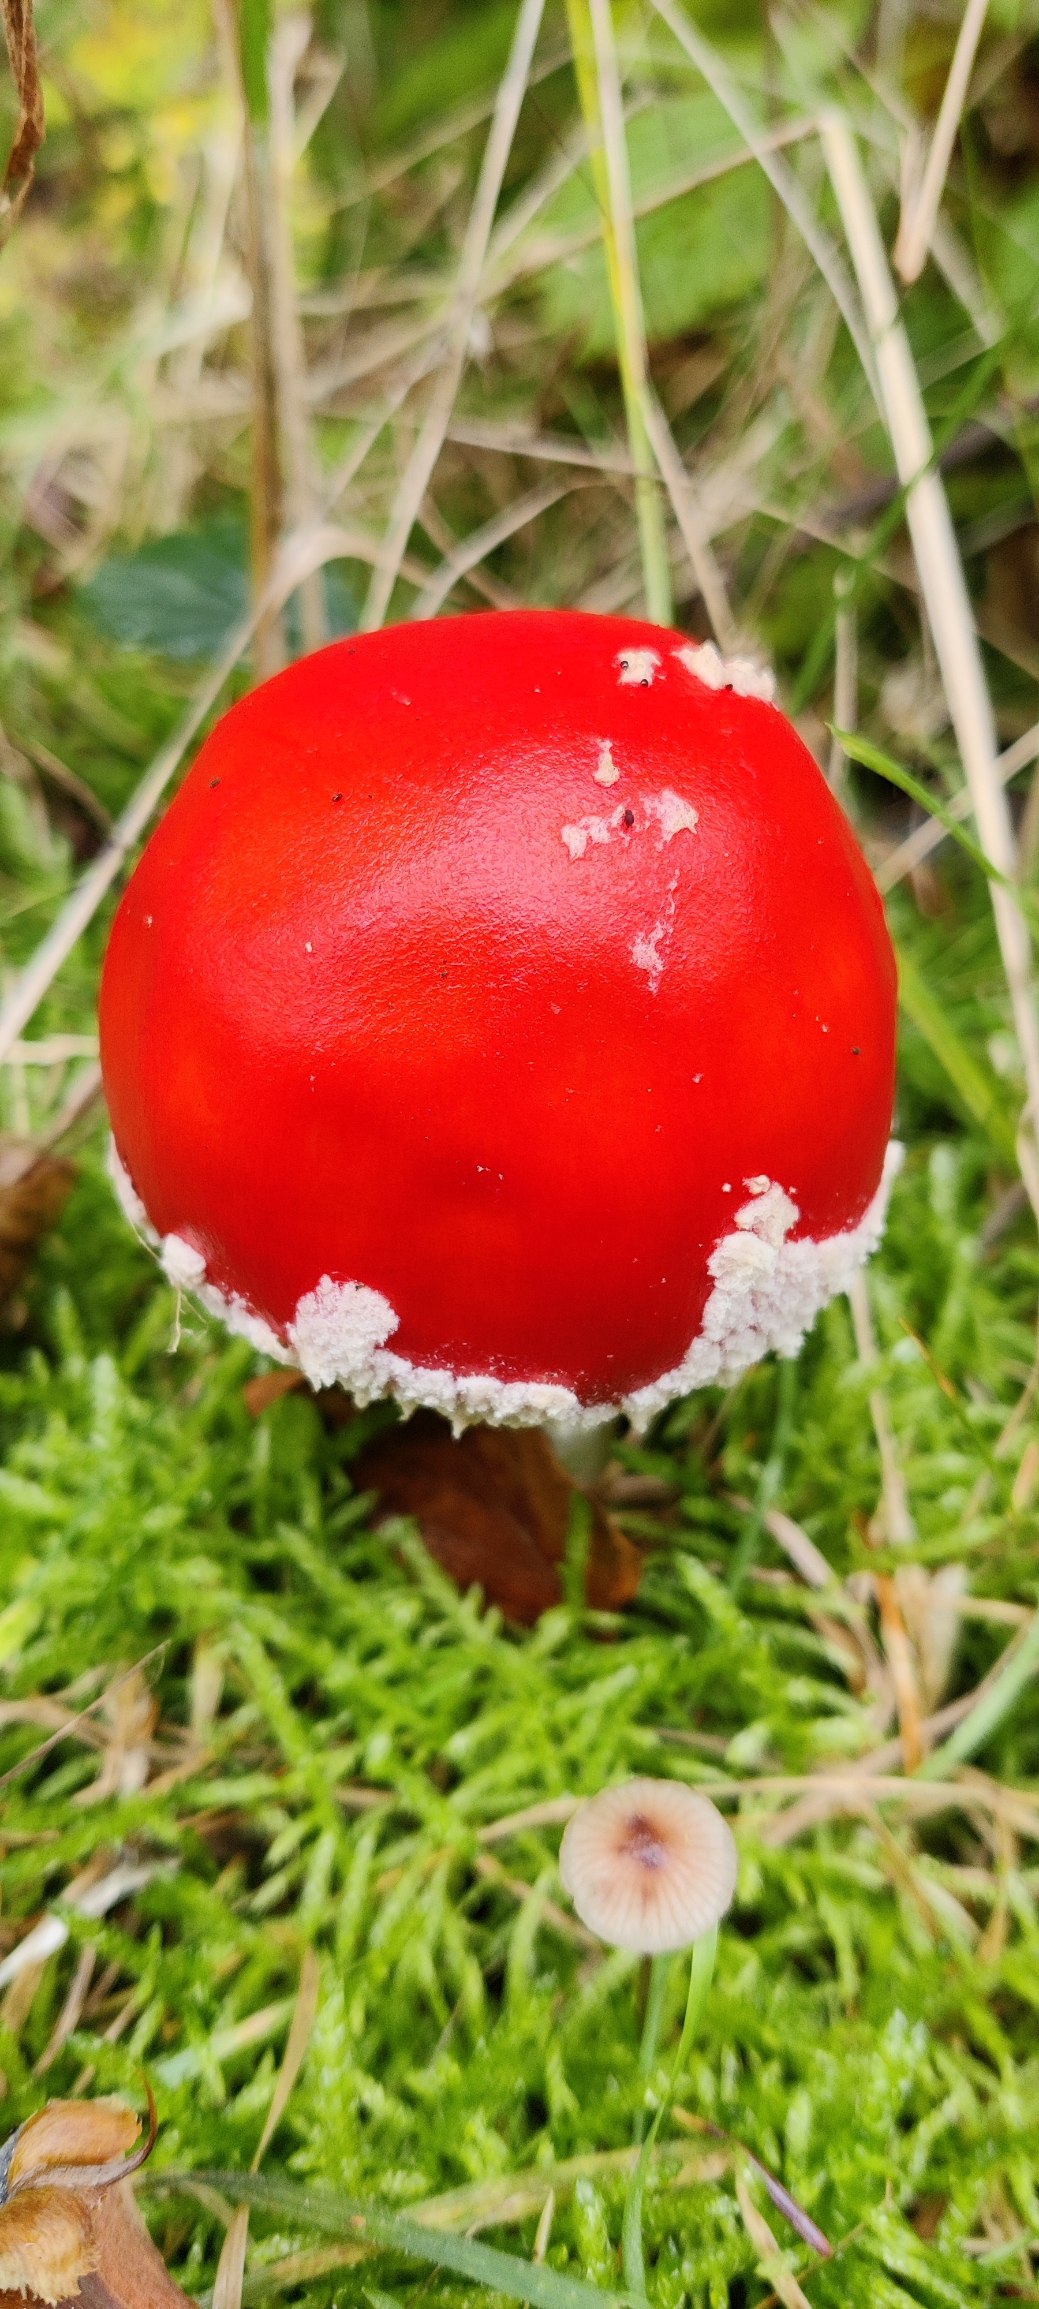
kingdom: Fungi
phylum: Basidiomycota
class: Agaricomycetes
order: Agaricales
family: Amanitaceae
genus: Amanita
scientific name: Amanita muscaria
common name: Rød fluesvamp
